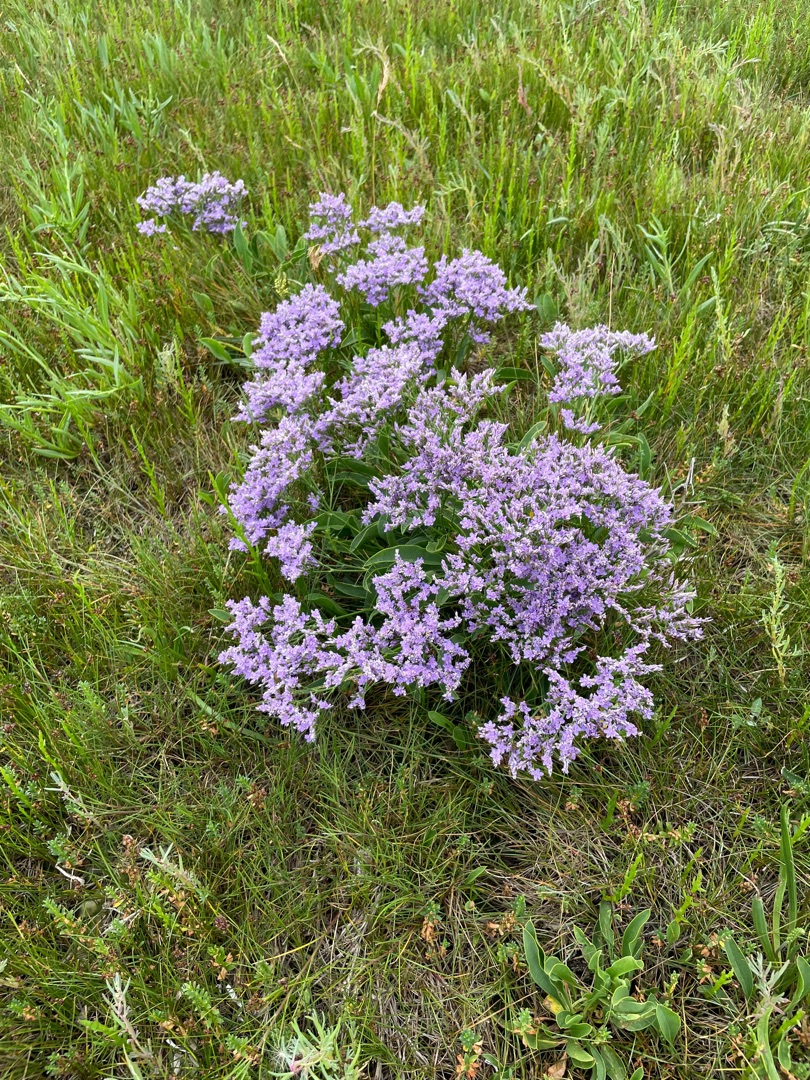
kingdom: Plantae
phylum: Tracheophyta
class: Magnoliopsida
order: Caryophyllales
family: Plumbaginaceae
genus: Limonium
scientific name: Limonium vulgare
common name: Tætblomstret hindebæger
